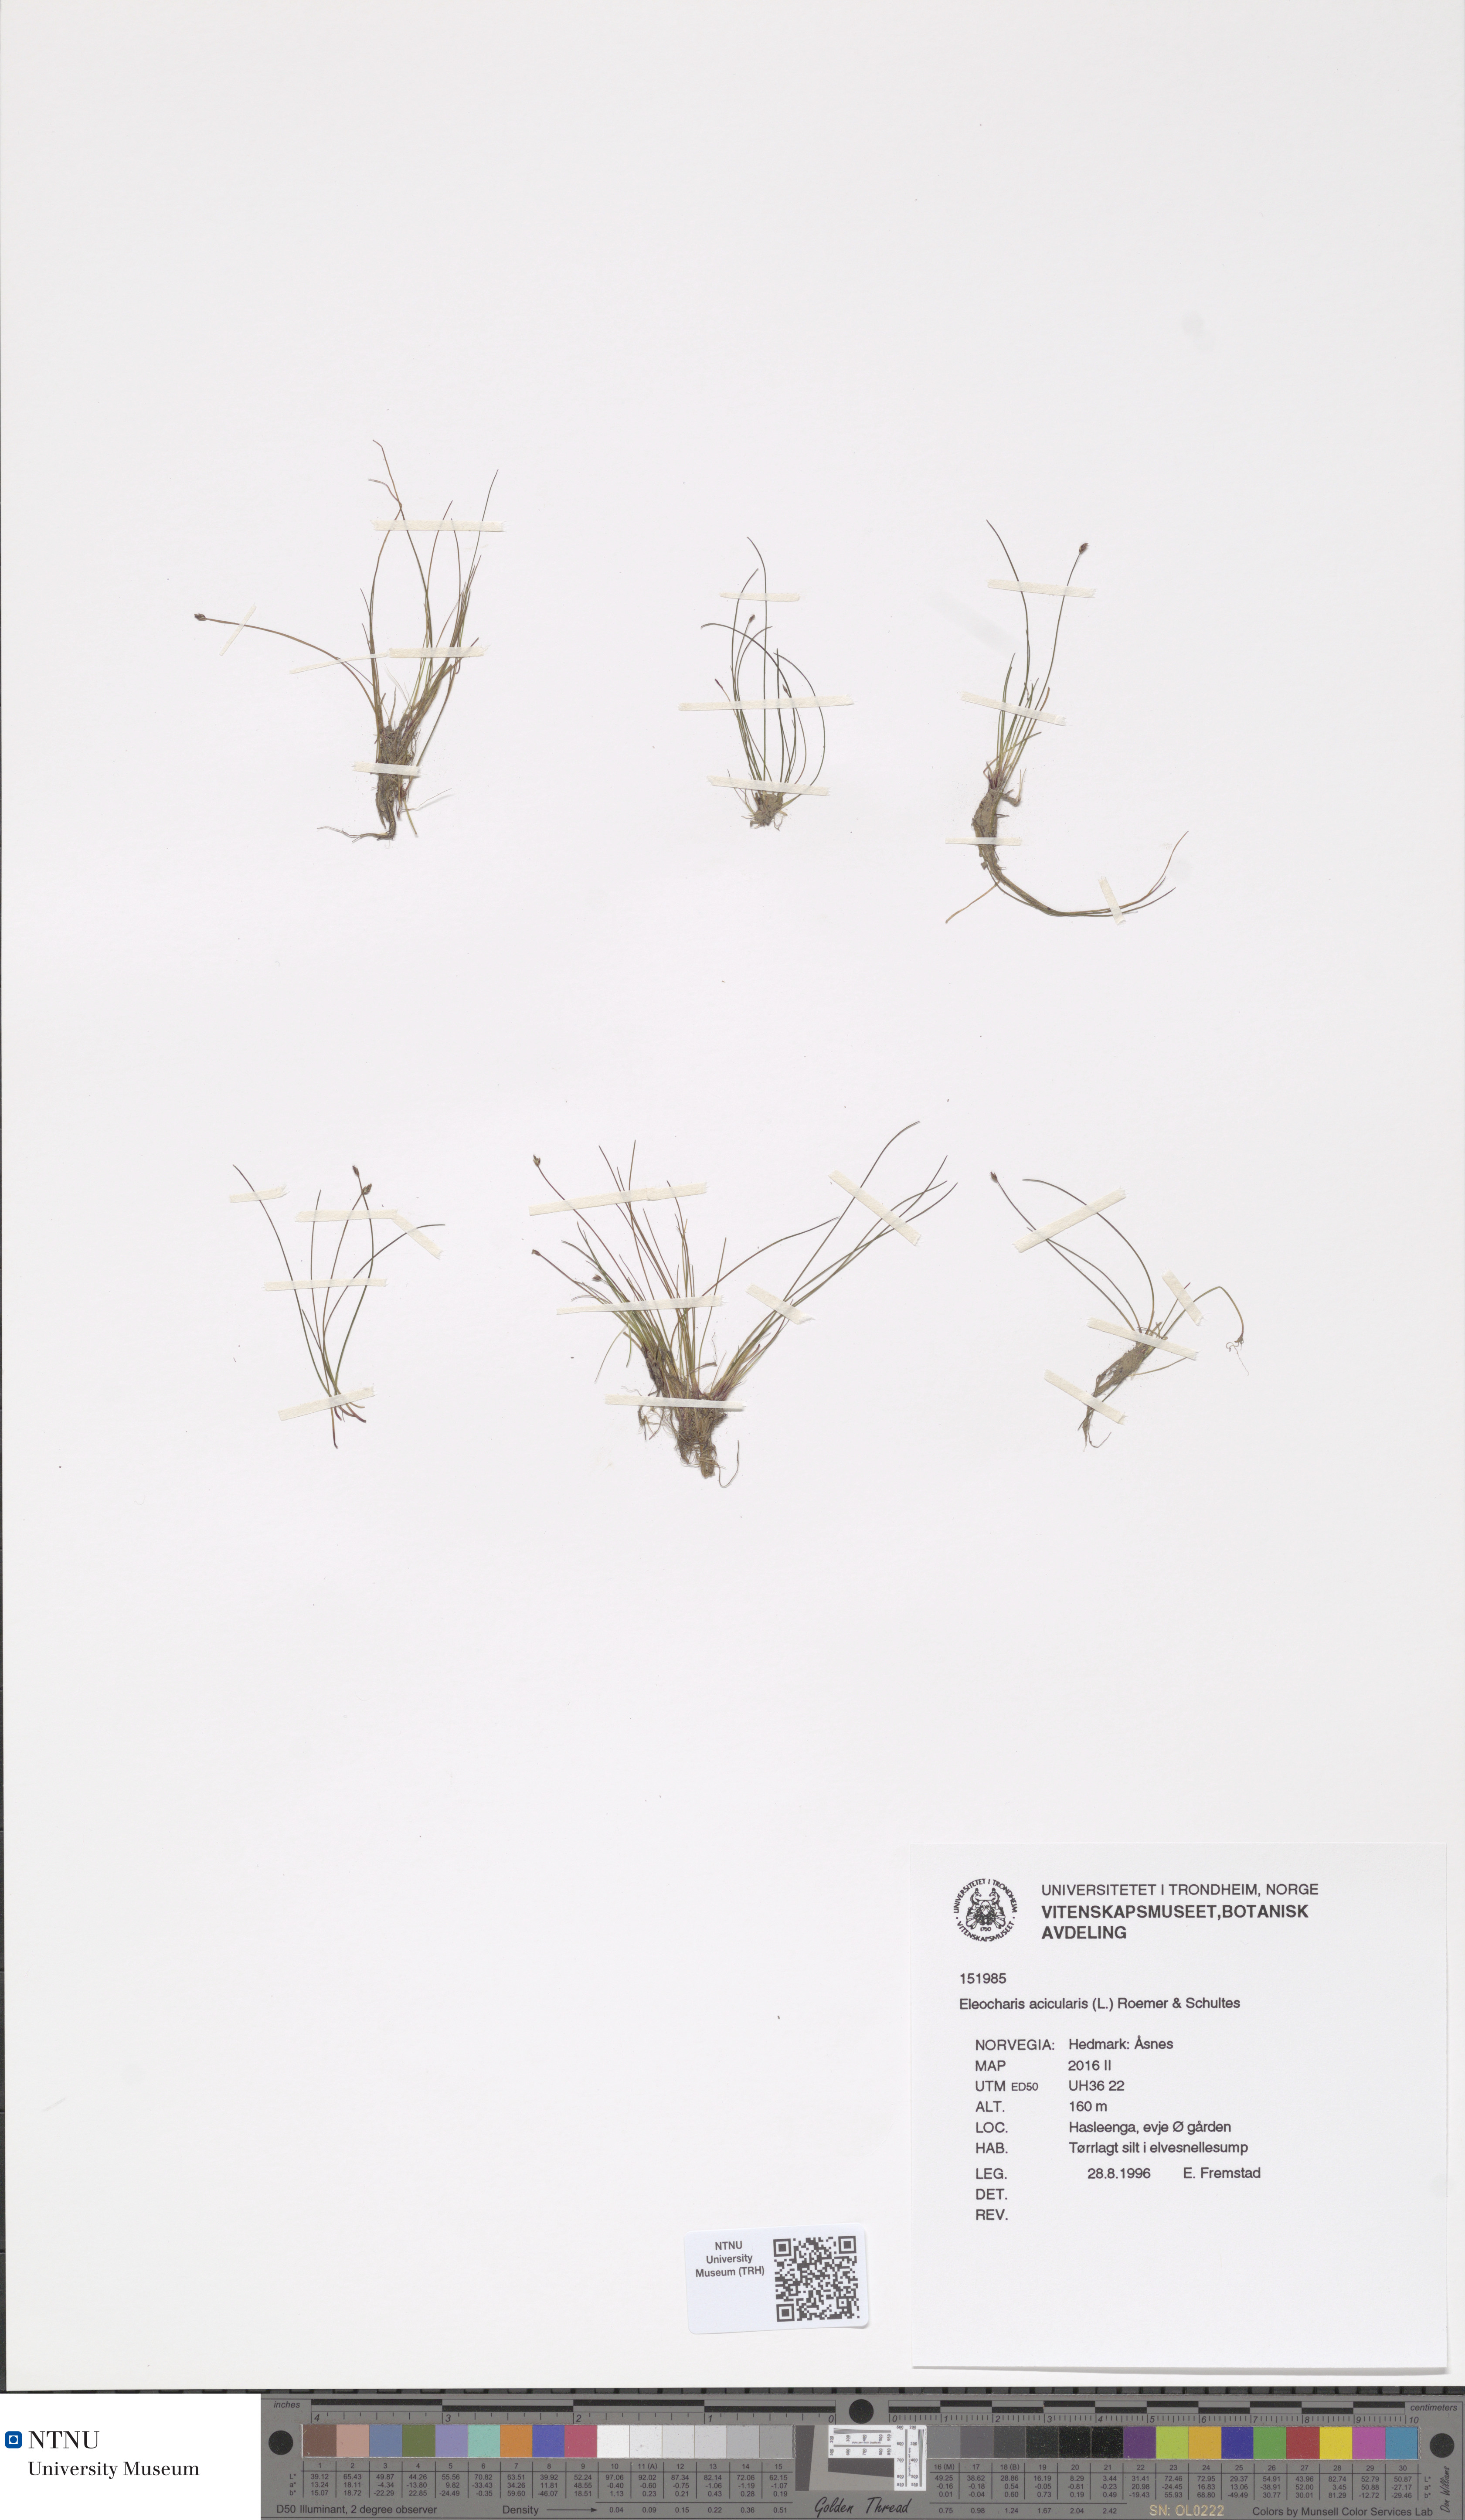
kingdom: Plantae
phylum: Tracheophyta
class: Liliopsida
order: Poales
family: Cyperaceae
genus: Eleocharis
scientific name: Eleocharis acicularis
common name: Needle spike-rush
